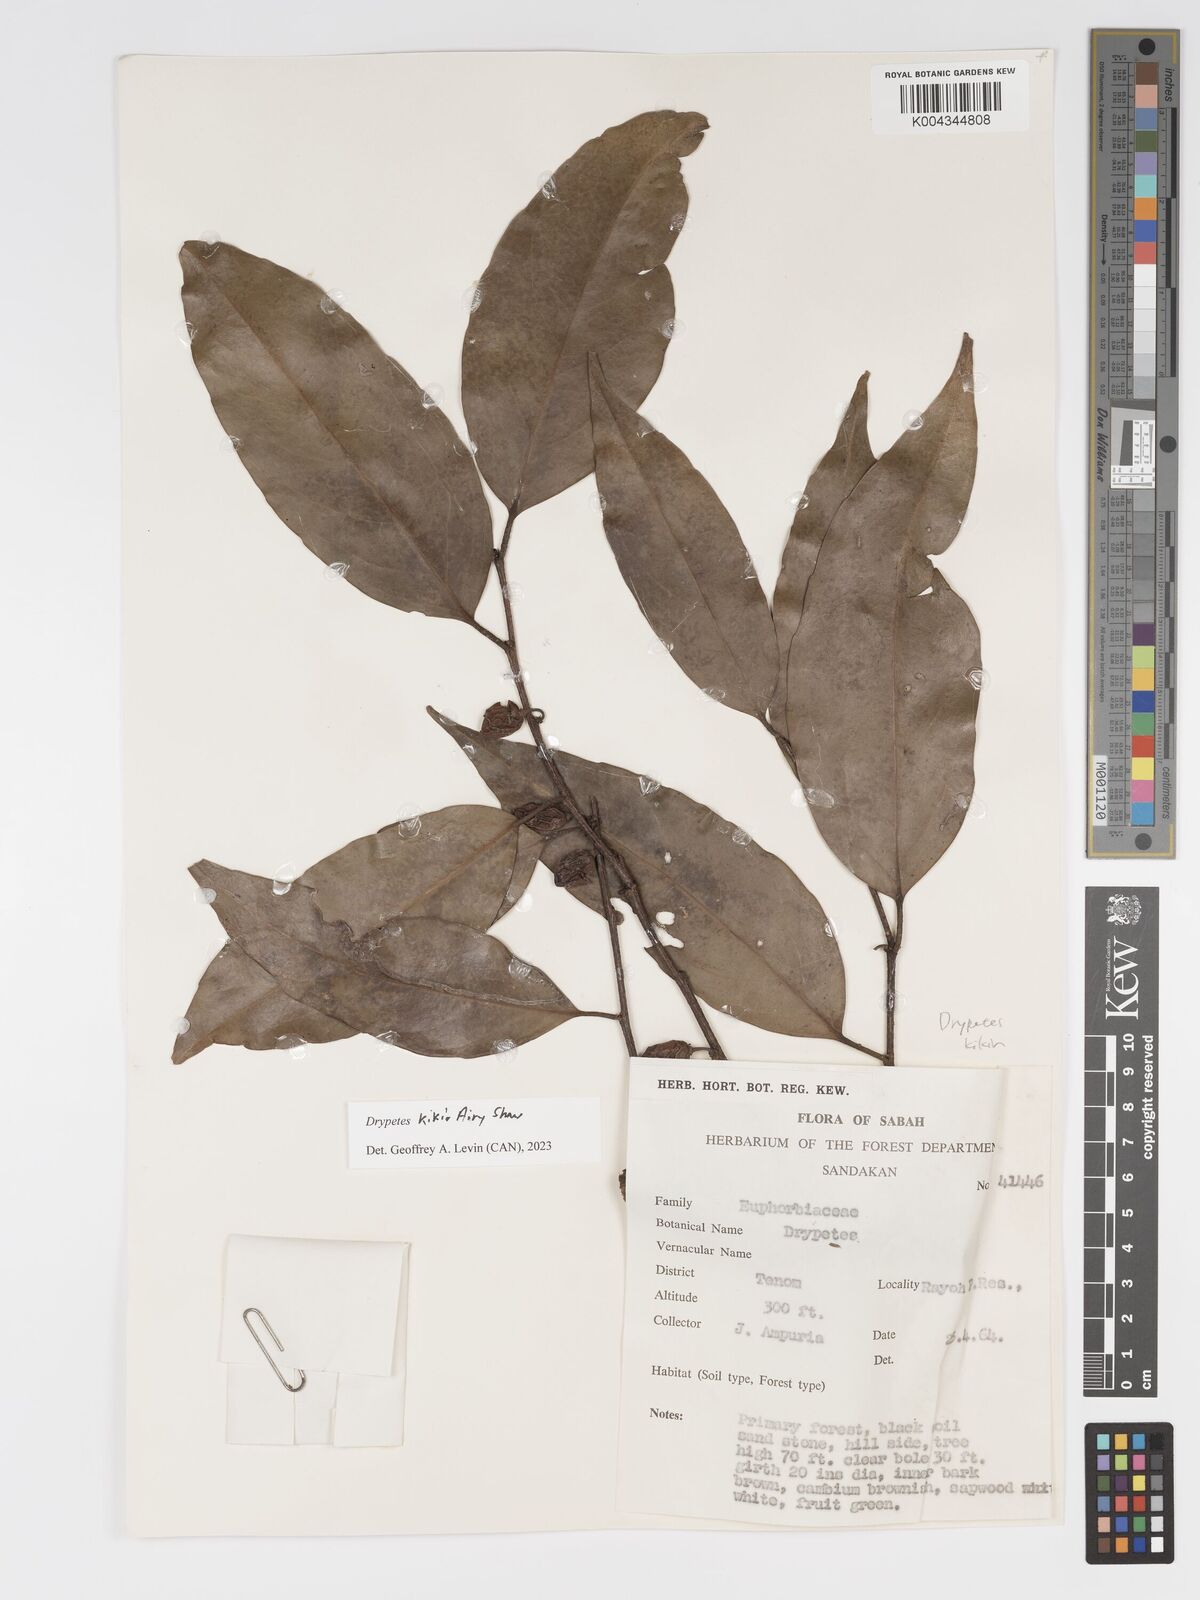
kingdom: Plantae
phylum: Tracheophyta
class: Magnoliopsida
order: Malpighiales
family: Putranjivaceae
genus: Drypetes
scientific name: Drypetes kikir
